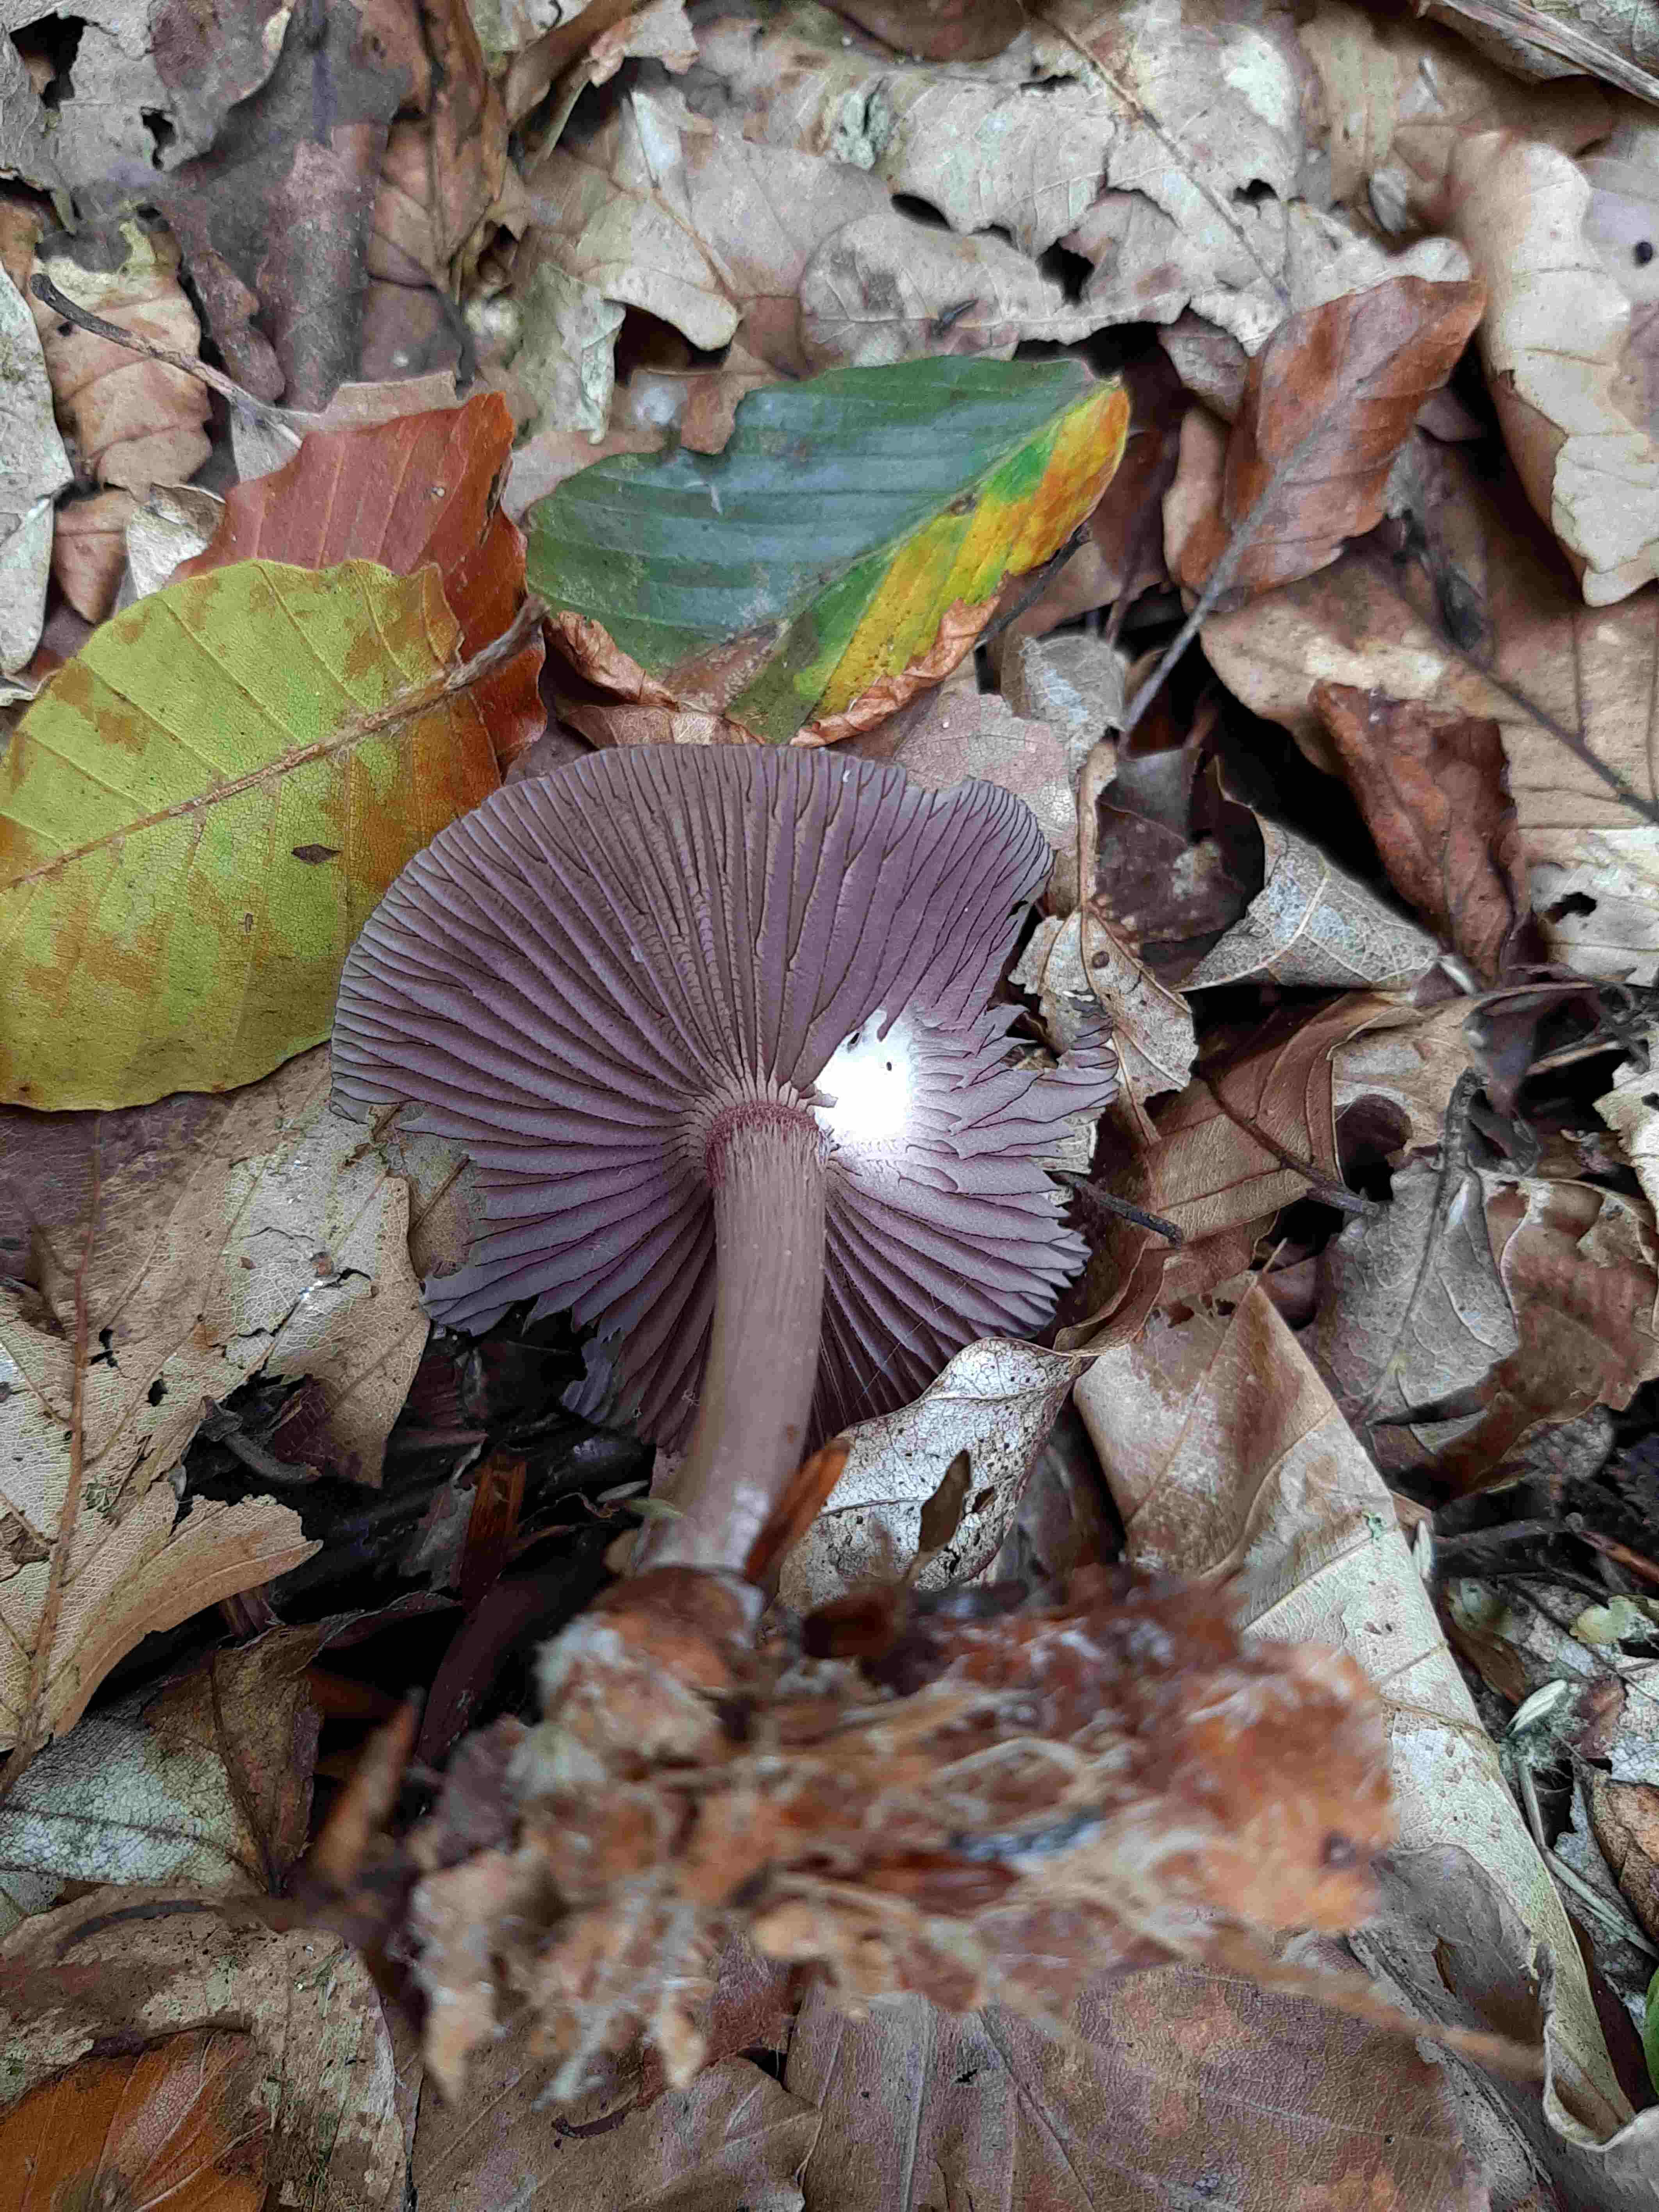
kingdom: Fungi
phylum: Basidiomycota
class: Agaricomycetes
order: Agaricales
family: Mycenaceae
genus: Mycena
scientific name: Mycena pelianthina
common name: mørkbladet huesvamp
